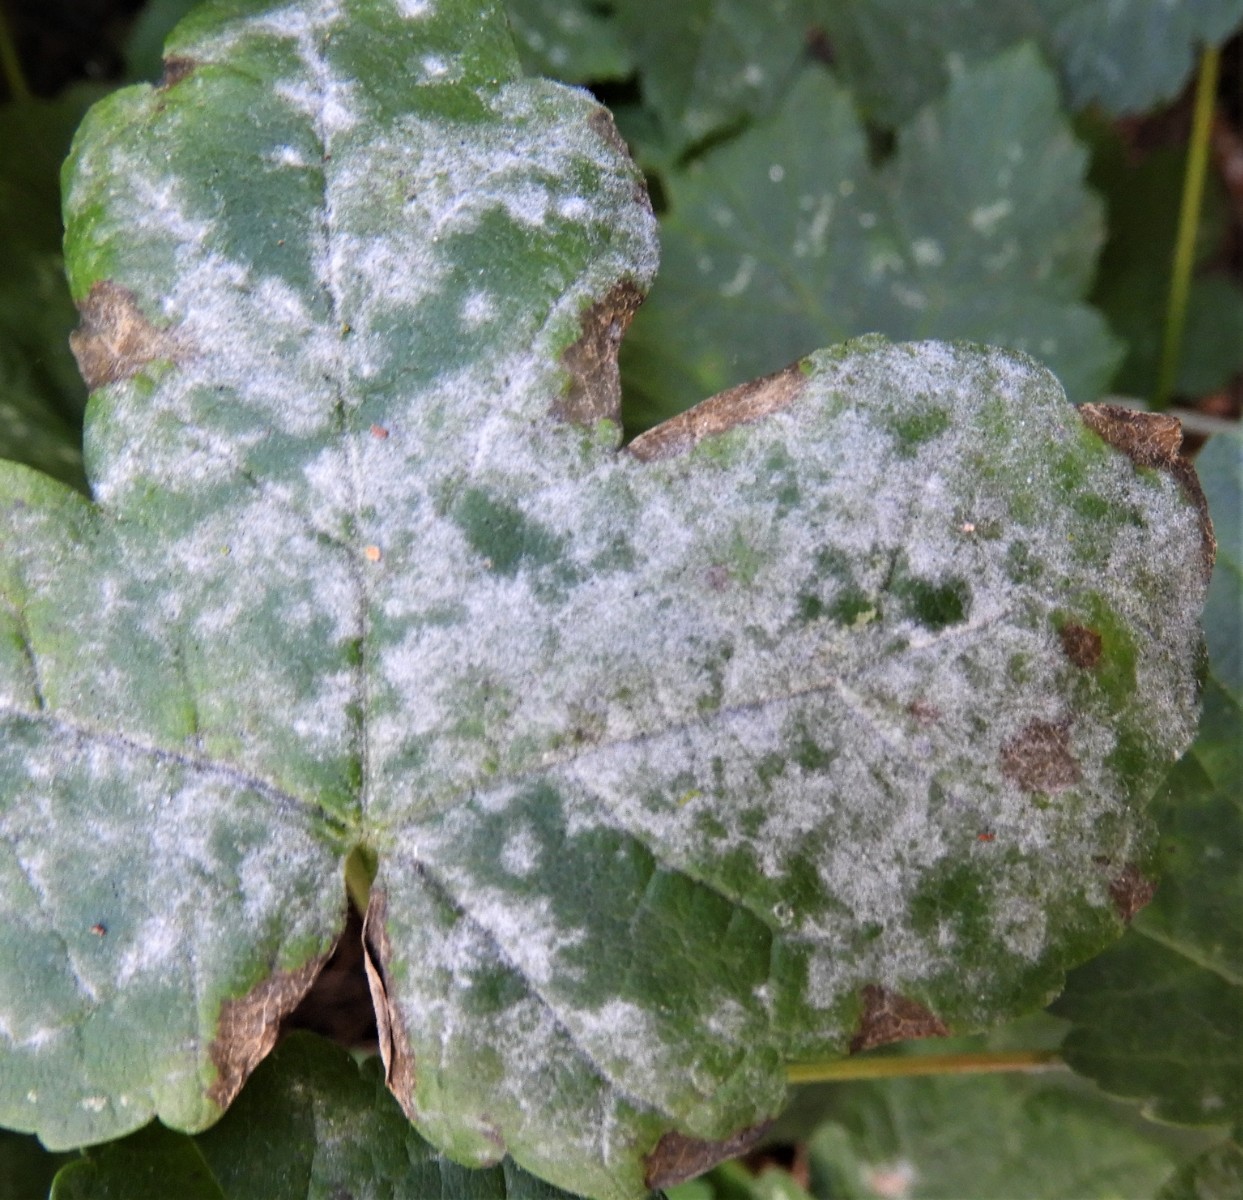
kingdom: Fungi
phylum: Ascomycota
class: Leotiomycetes
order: Helotiales
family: Erysiphaceae
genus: Sawadaea
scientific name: Sawadaea bicornis
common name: Maple mildew
